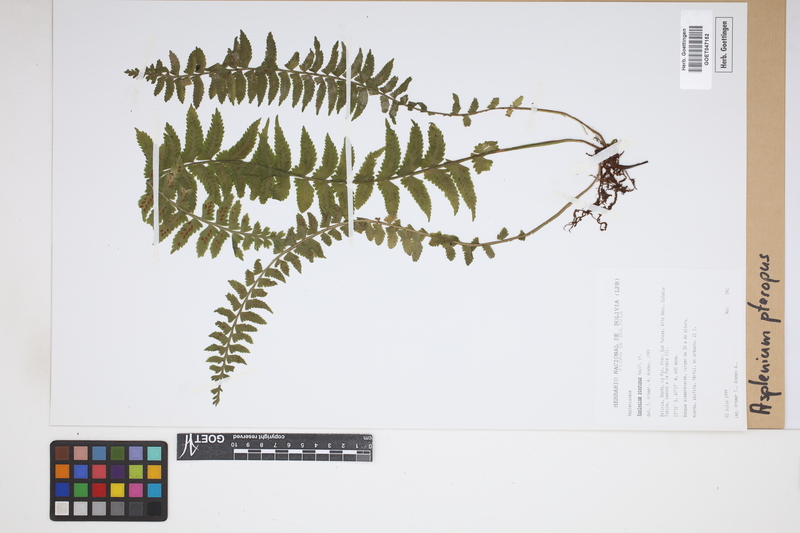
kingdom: Plantae
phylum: Tracheophyta
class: Polypodiopsida
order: Polypodiales
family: Aspleniaceae
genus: Asplenium
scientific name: Asplenium pteropus
